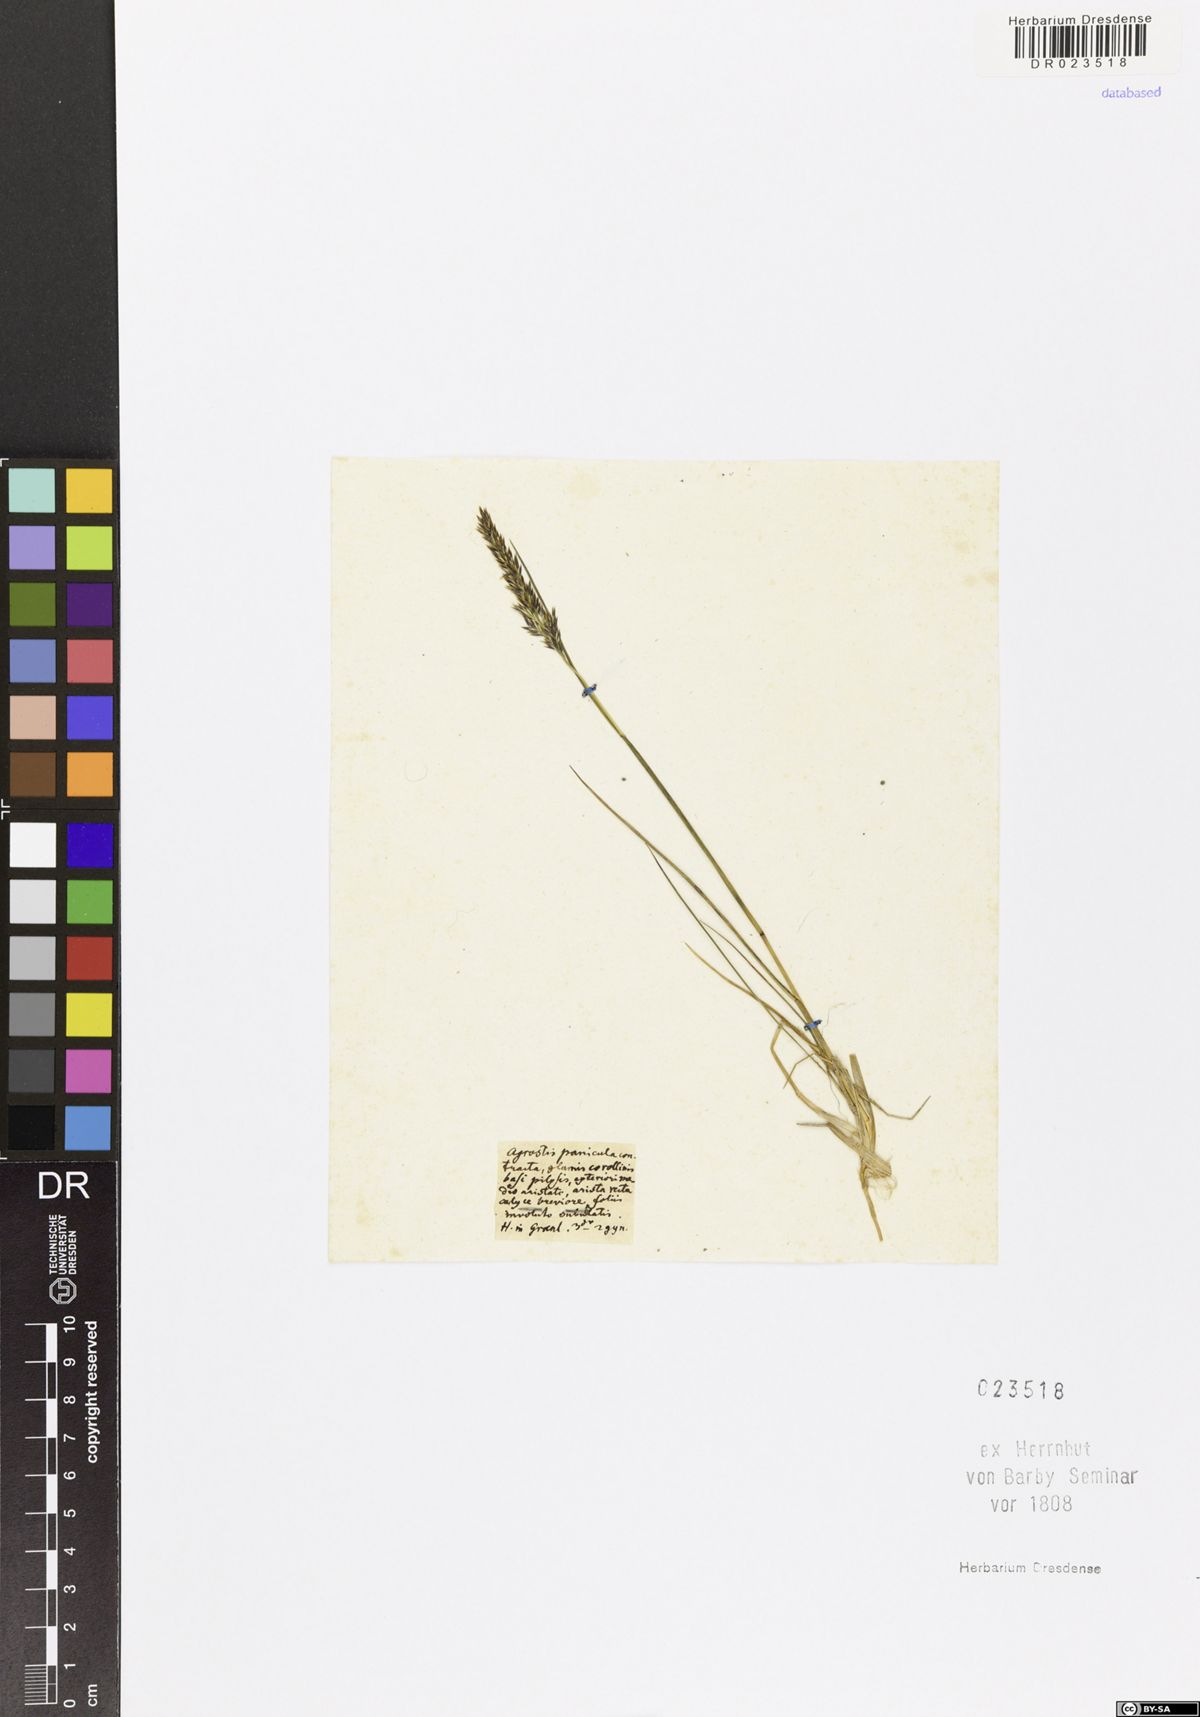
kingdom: Plantae
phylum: Tracheophyta
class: Liliopsida
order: Poales
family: Poaceae
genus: Agrostis
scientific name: Agrostis paniculata
